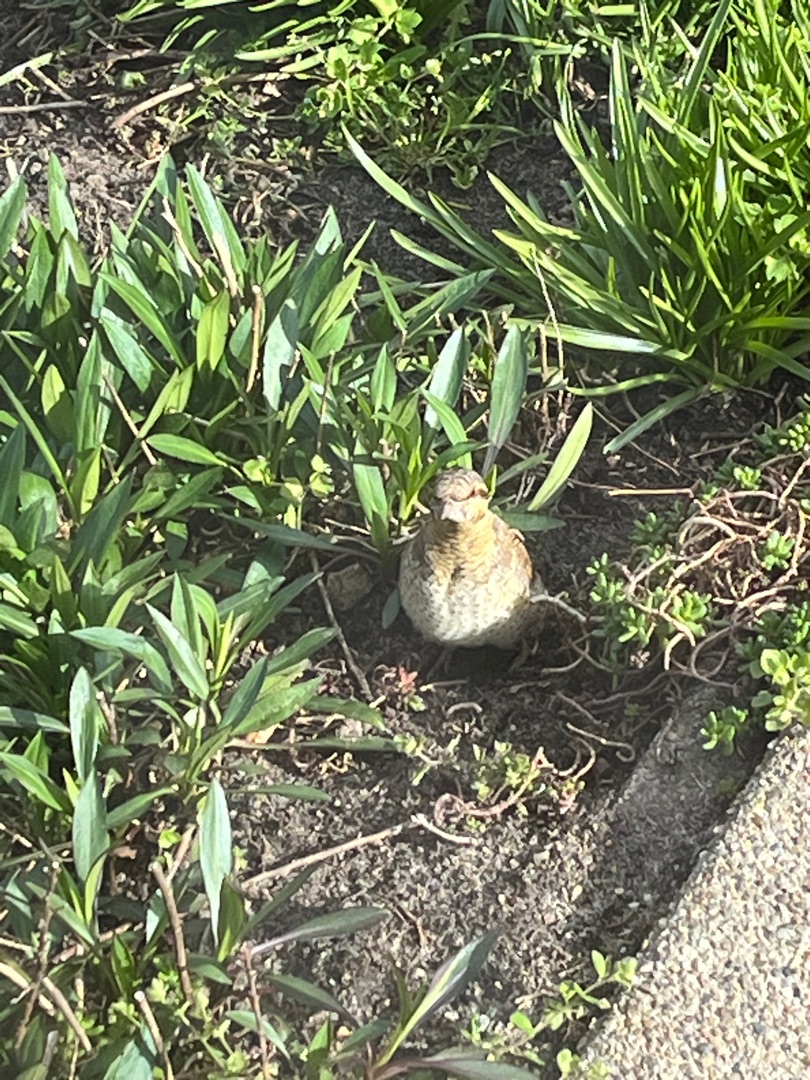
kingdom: Animalia
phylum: Chordata
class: Aves
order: Piciformes
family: Picidae
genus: Jynx
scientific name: Jynx torquilla
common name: Vendehals
